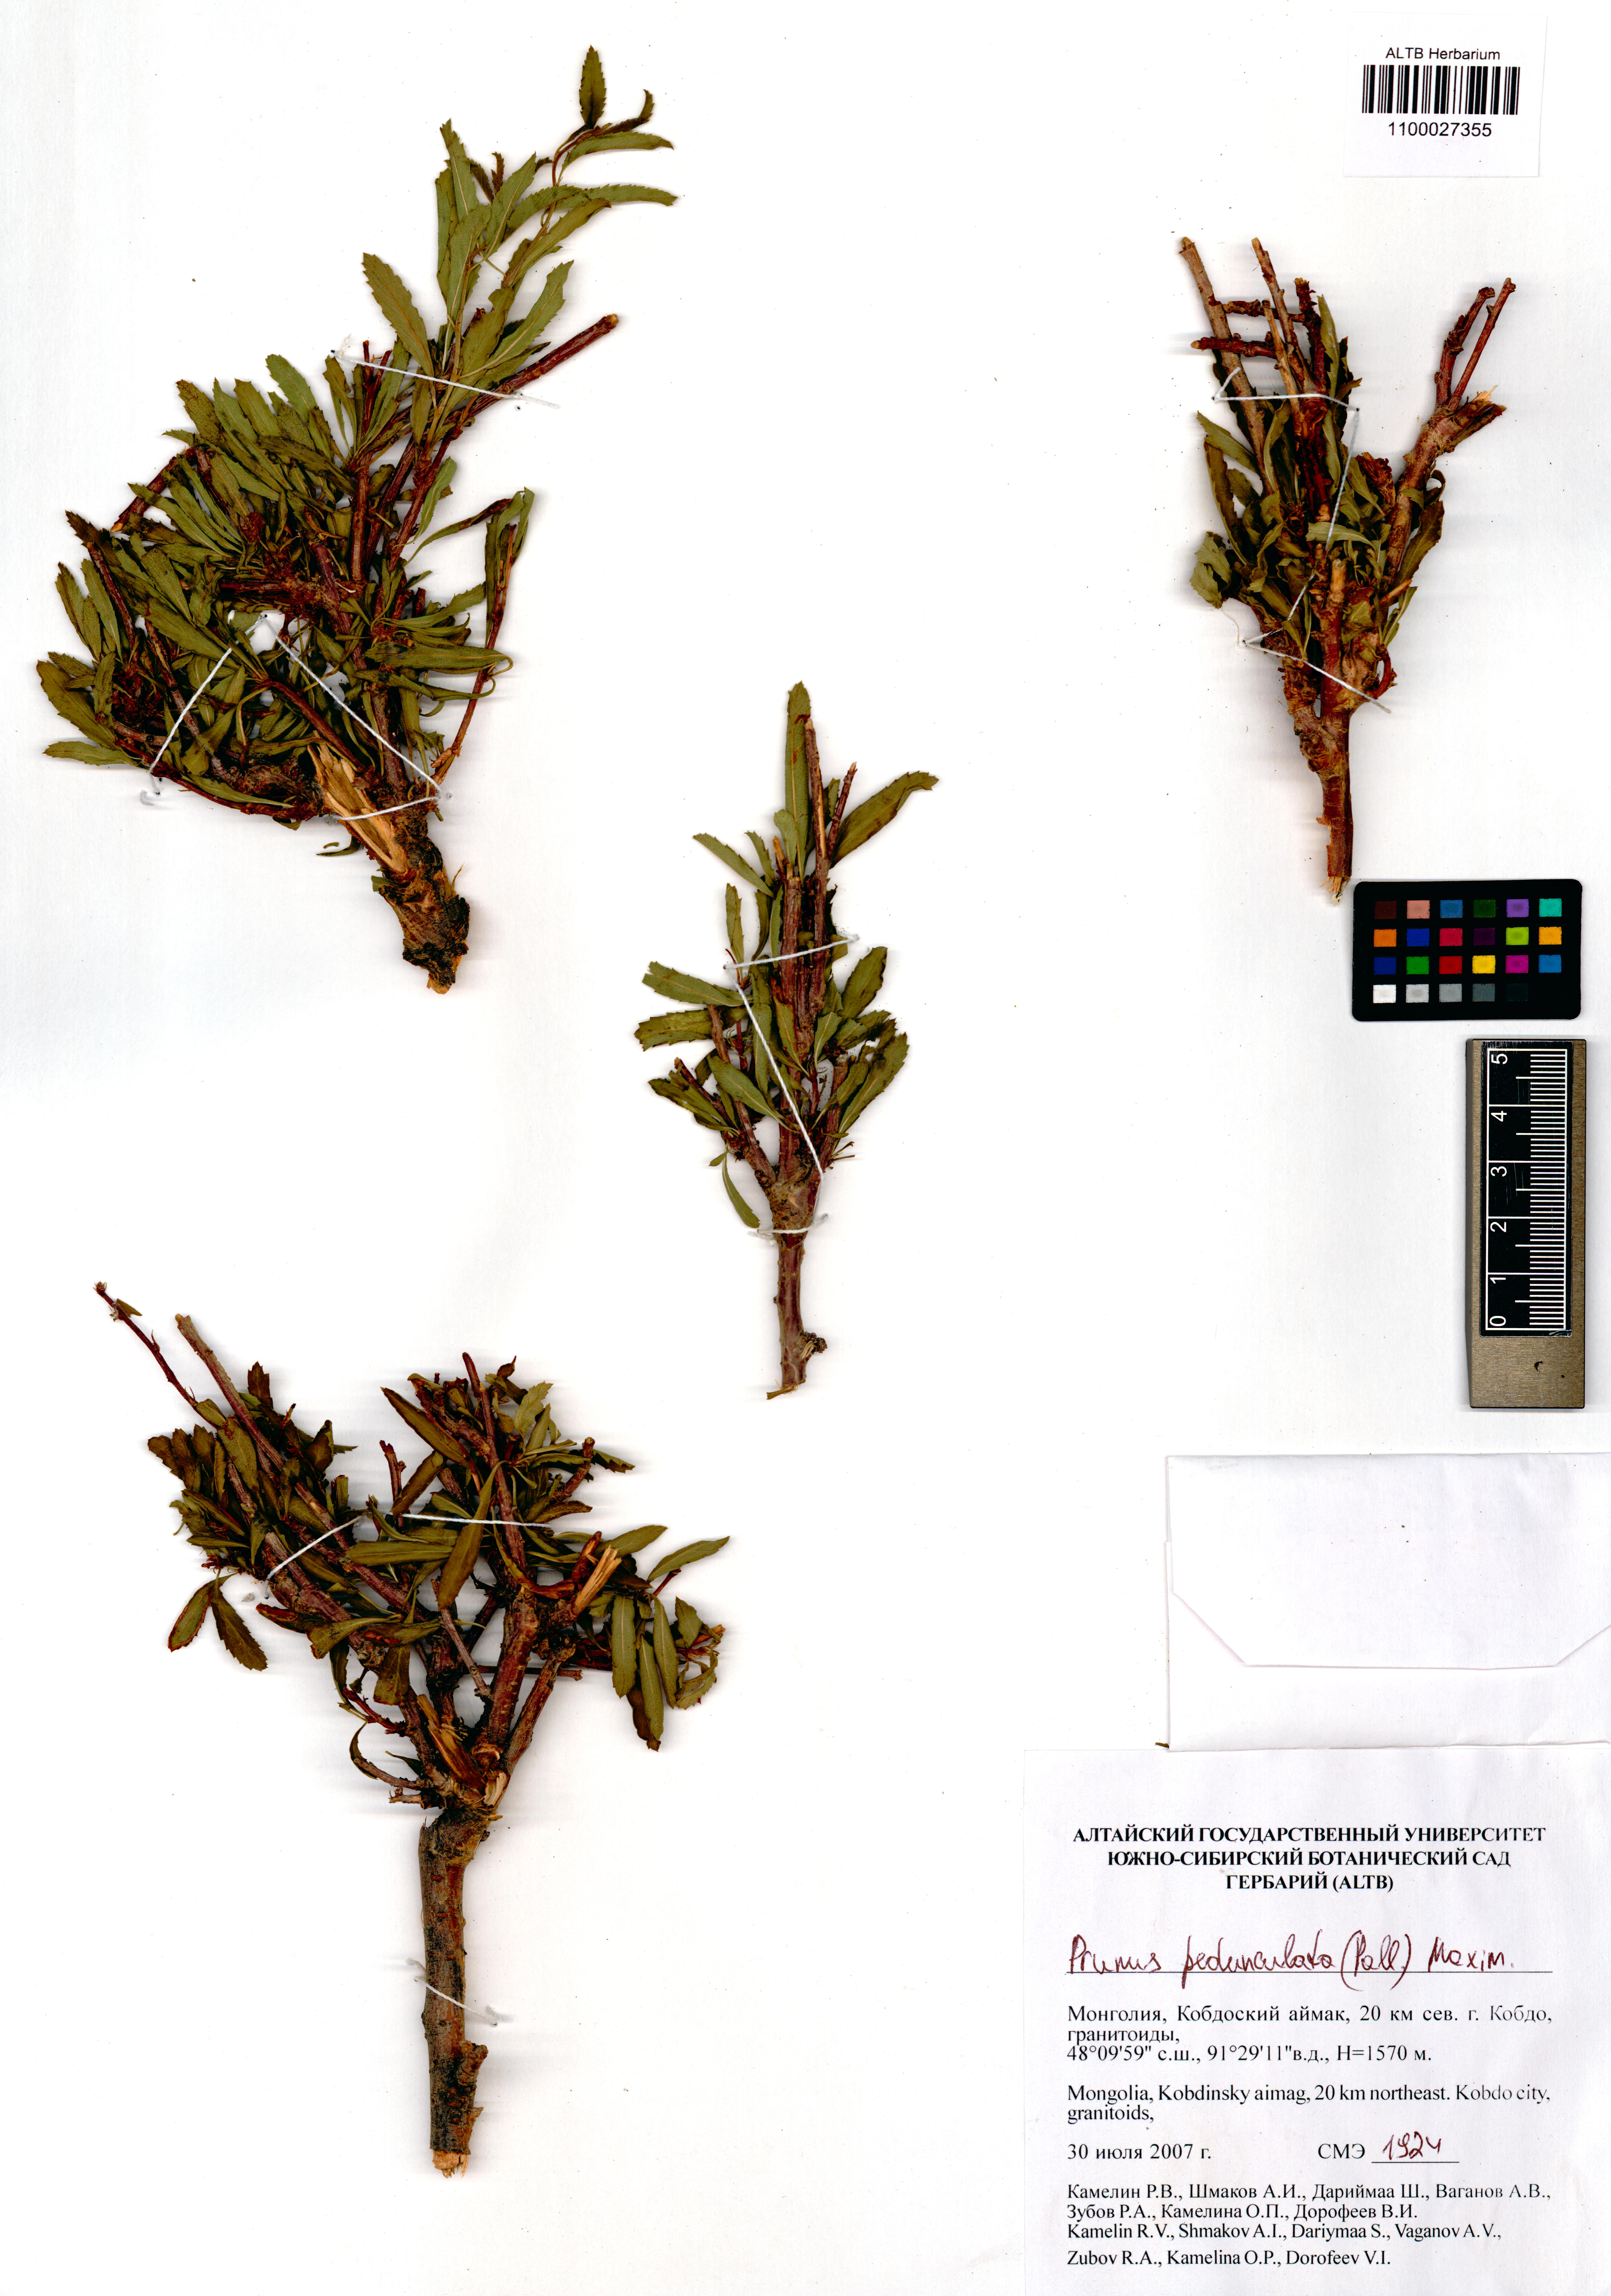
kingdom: Plantae
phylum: Tracheophyta
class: Magnoliopsida
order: Rosales
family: Rosaceae
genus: Prunus
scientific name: Prunus pedunculata
